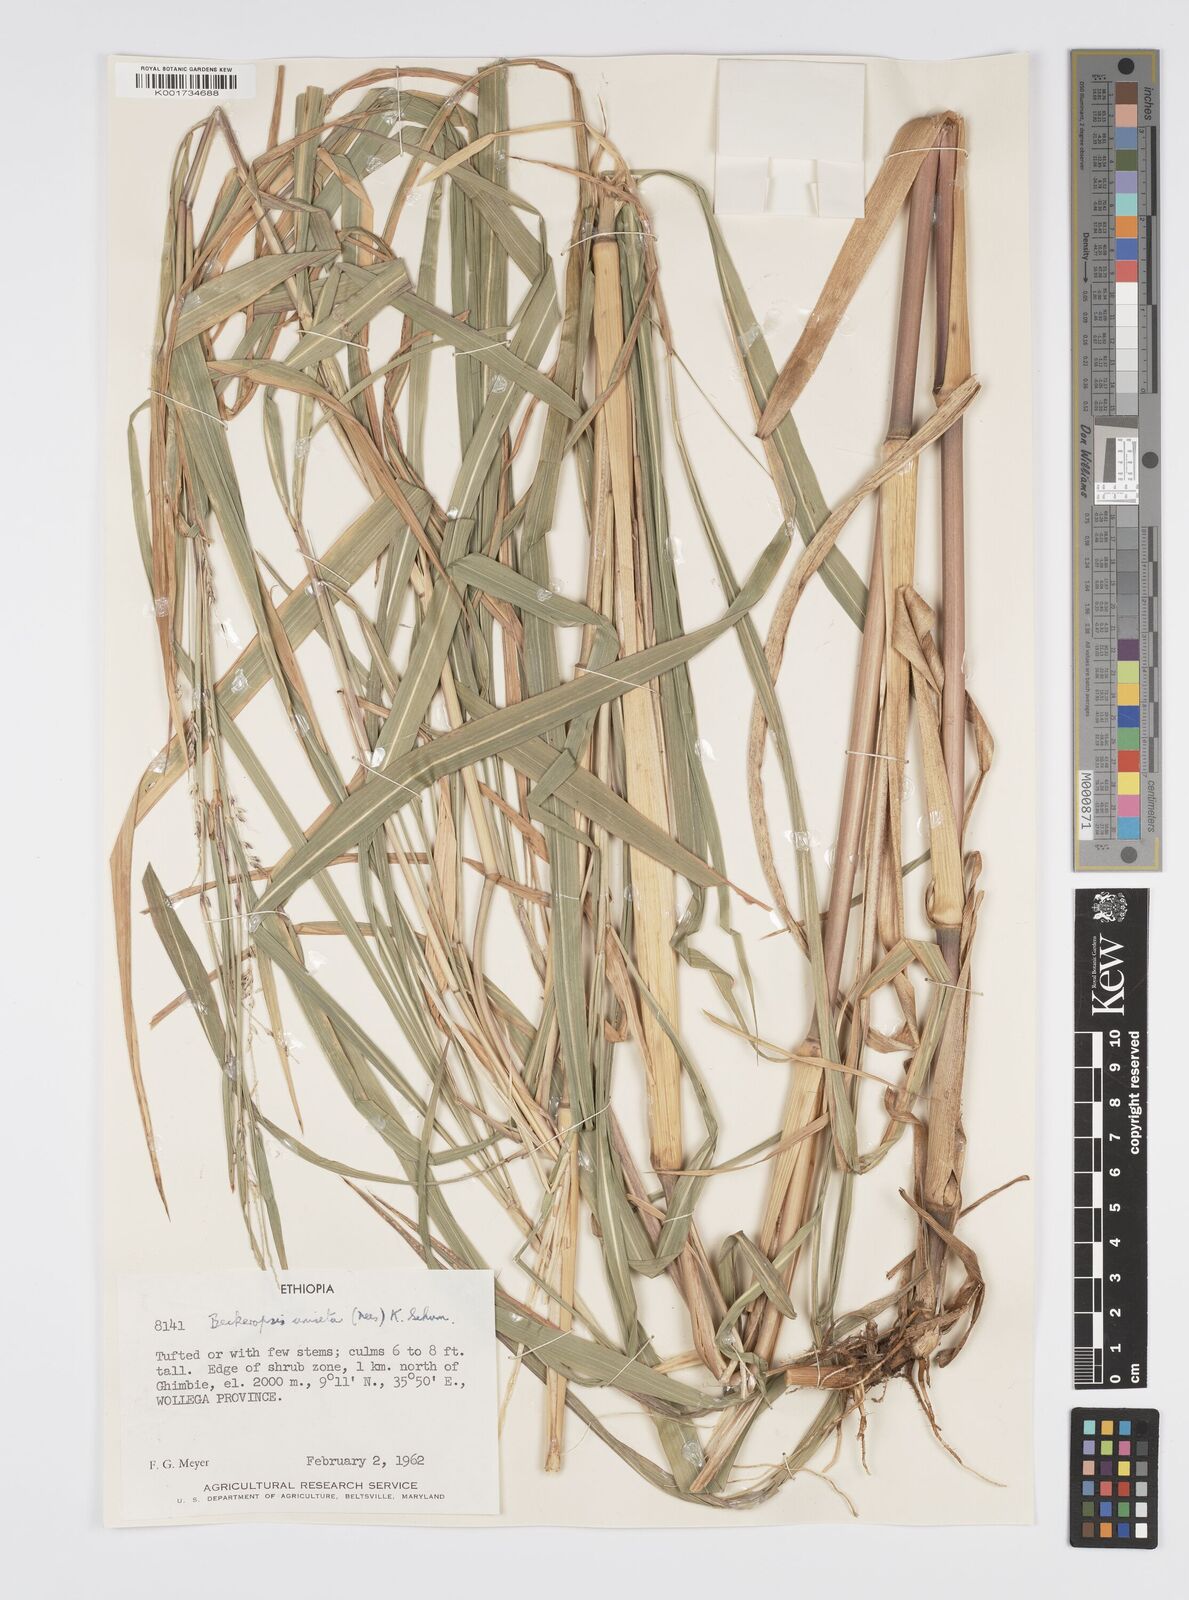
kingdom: Plantae
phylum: Tracheophyta
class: Liliopsida
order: Poales
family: Poaceae
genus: Cenchrus
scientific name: Cenchrus unisetus
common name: Natal grass
